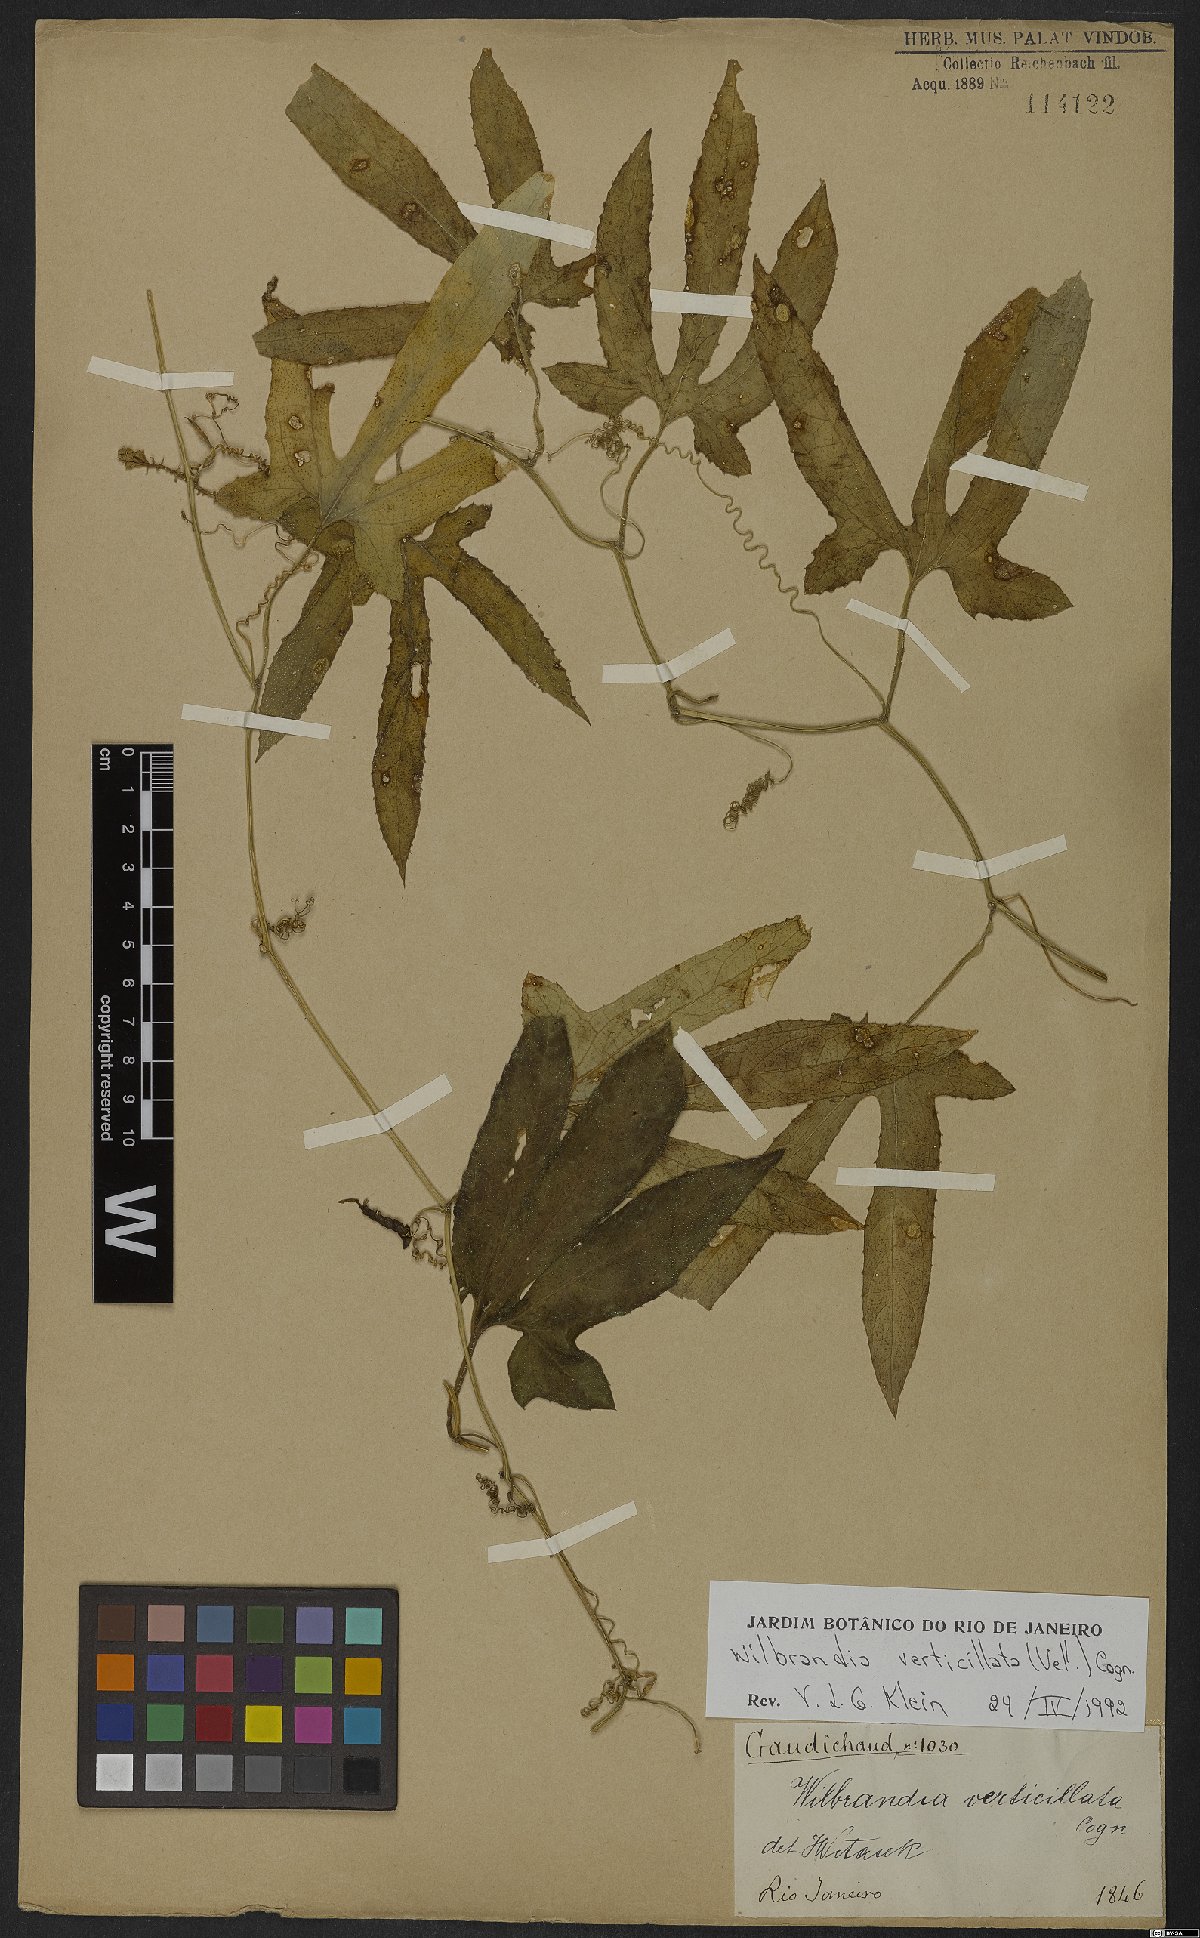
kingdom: Plantae
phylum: Tracheophyta
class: Magnoliopsida
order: Cucurbitales
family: Cucurbitaceae
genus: Wilbrandia
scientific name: Wilbrandia verticillata
